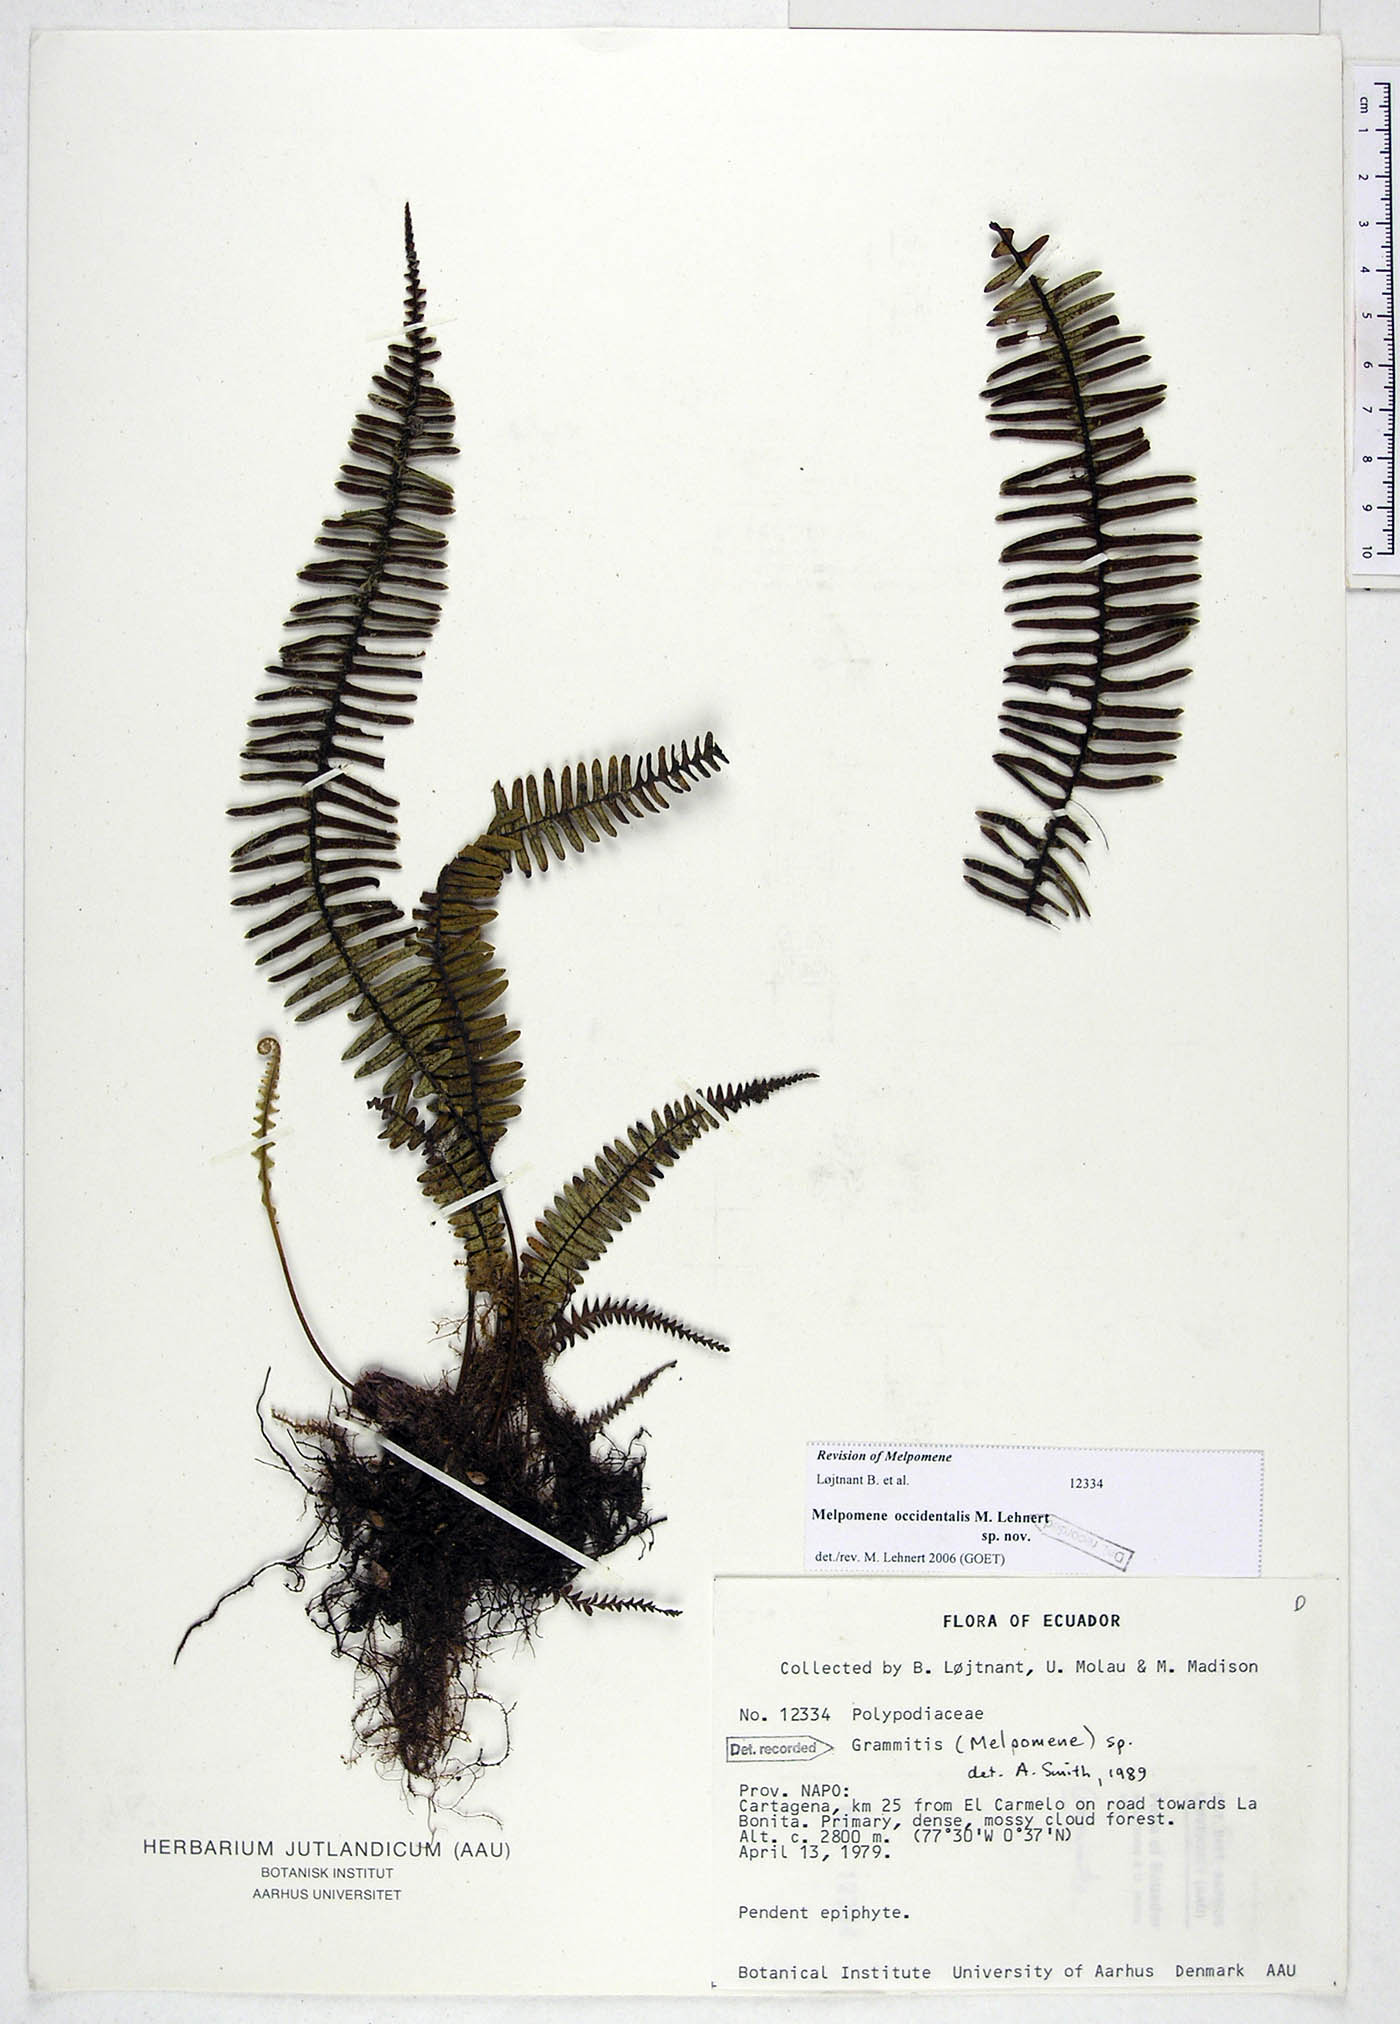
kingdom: Plantae
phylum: Tracheophyta
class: Polypodiopsida
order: Polypodiales
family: Polypodiaceae
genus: Melpomene
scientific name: Melpomene occidentalis
